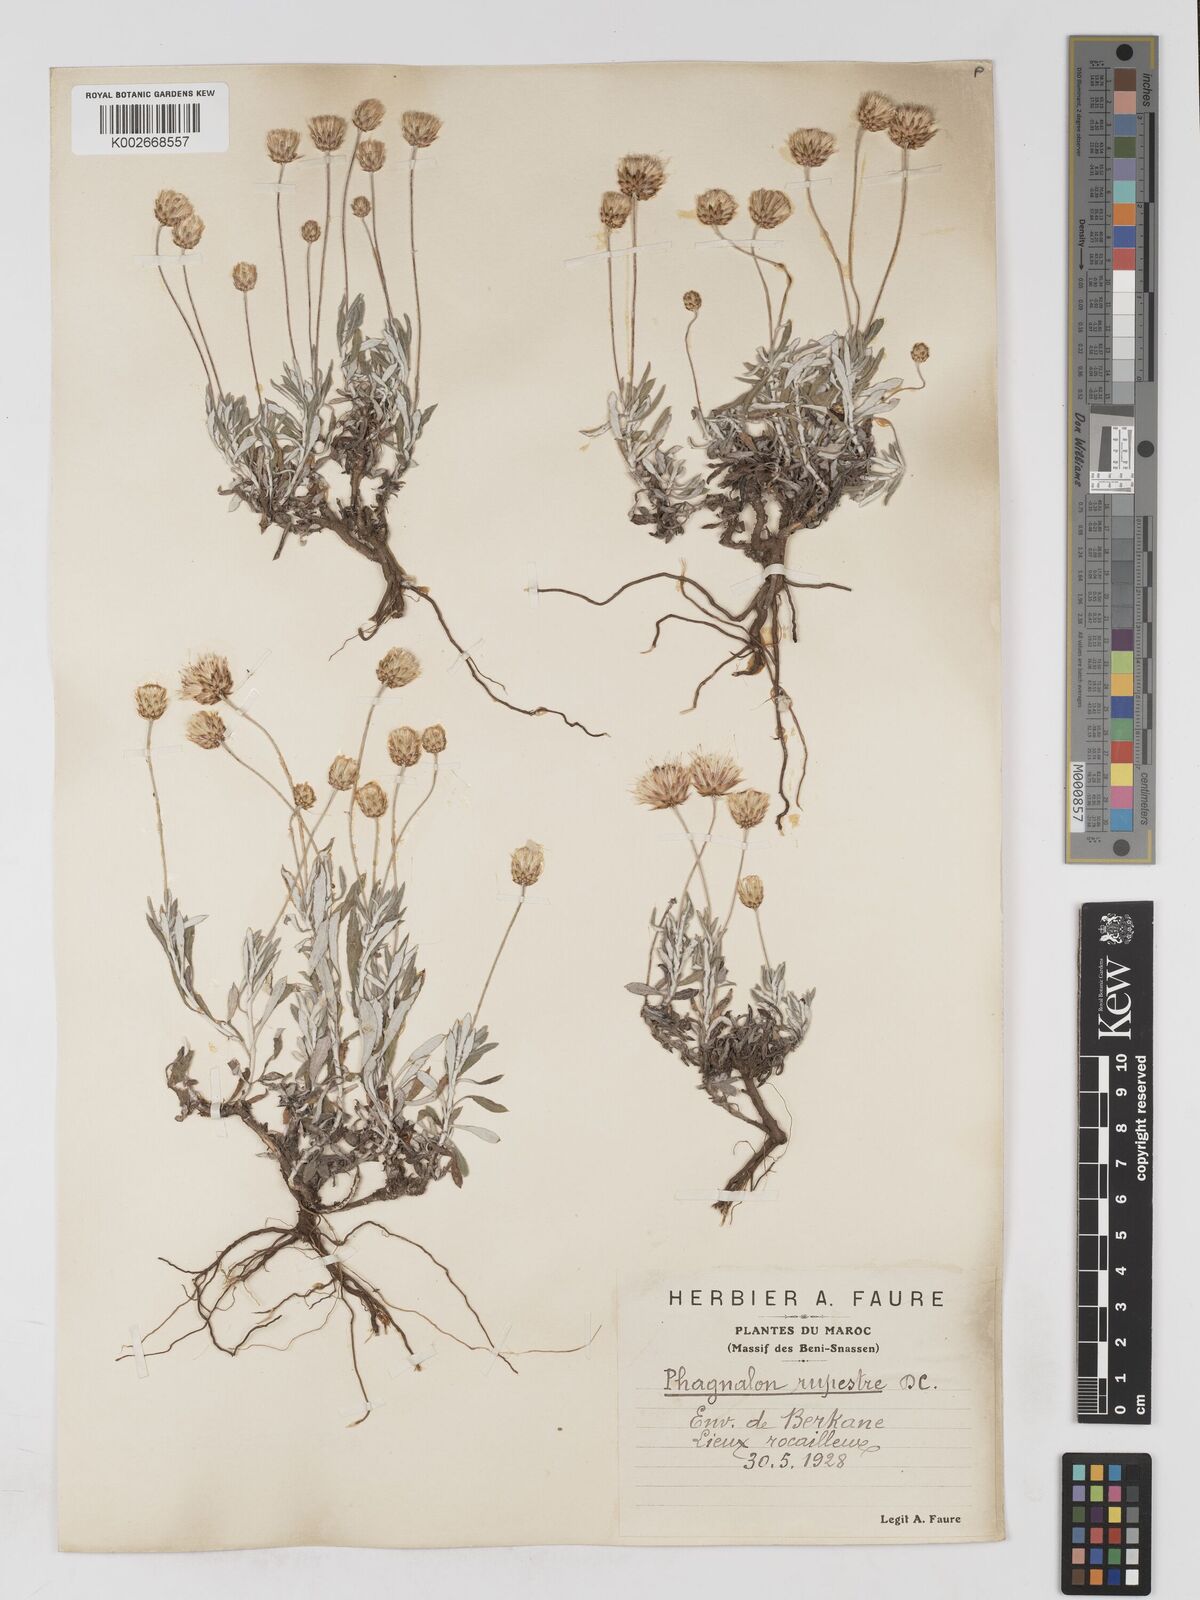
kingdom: Plantae
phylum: Tracheophyta
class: Magnoliopsida
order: Asterales
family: Asteraceae
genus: Phagnalon
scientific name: Phagnalon rupestre
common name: Rock phagnalon
